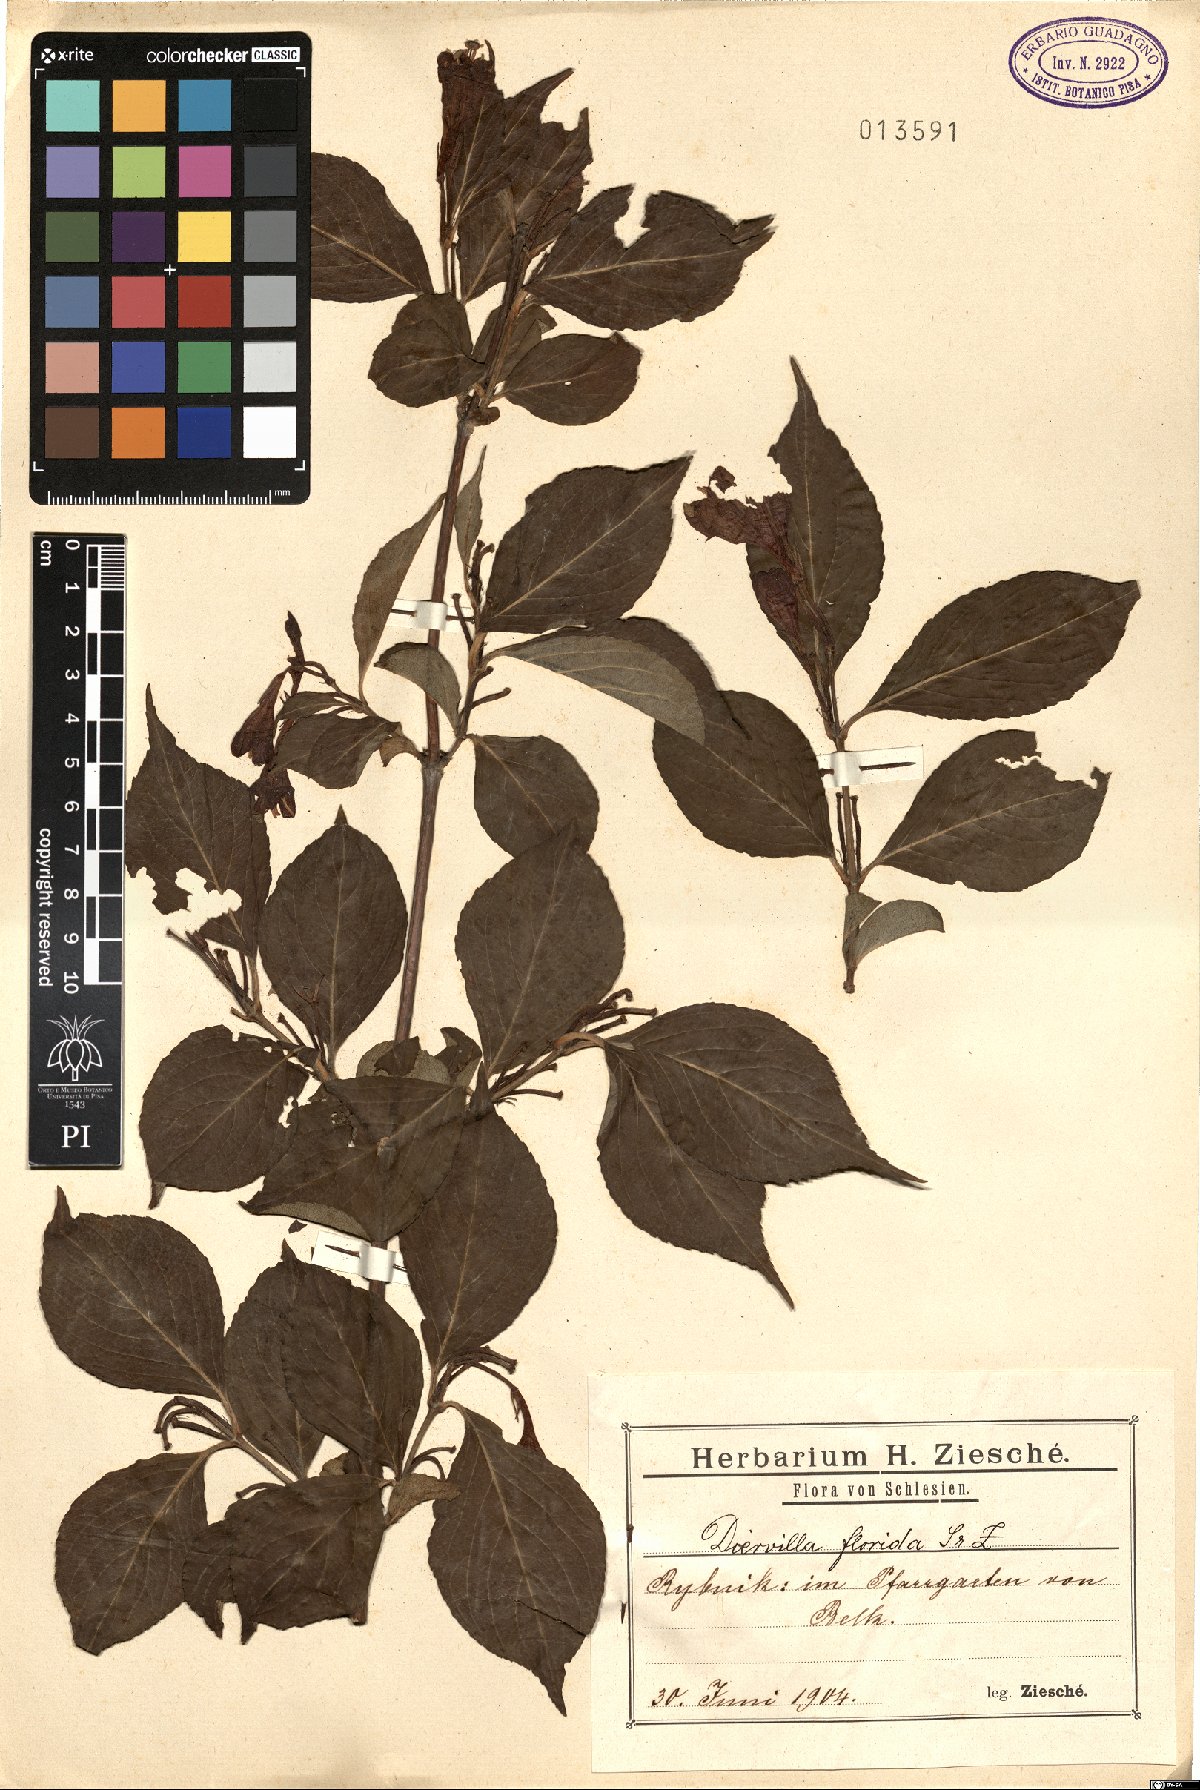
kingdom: Plantae
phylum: Tracheophyta
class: Magnoliopsida
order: Dipsacales
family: Caprifoliaceae
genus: Weigela
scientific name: Weigela florida
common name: Weigelia
